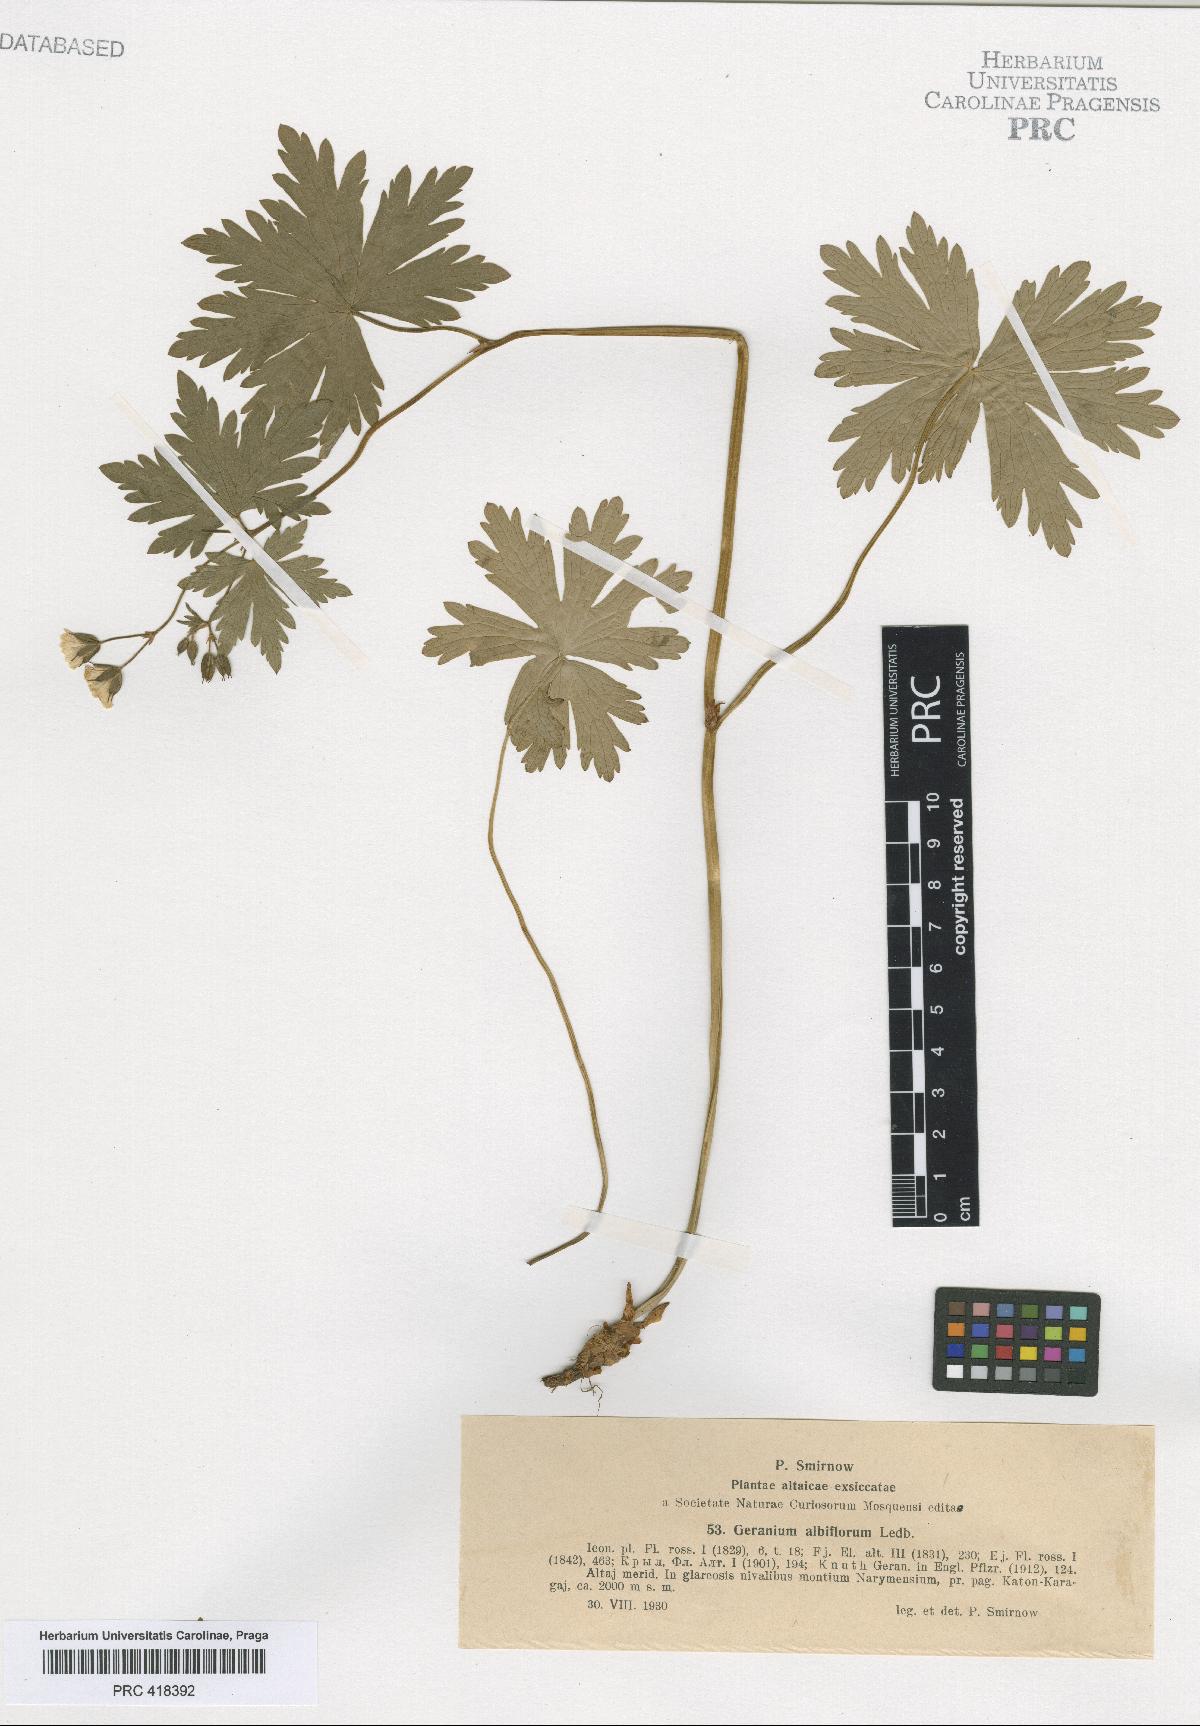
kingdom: Plantae
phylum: Tracheophyta
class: Magnoliopsida
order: Geraniales
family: Geraniaceae
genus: Geranium
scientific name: Geranium albiflorum
